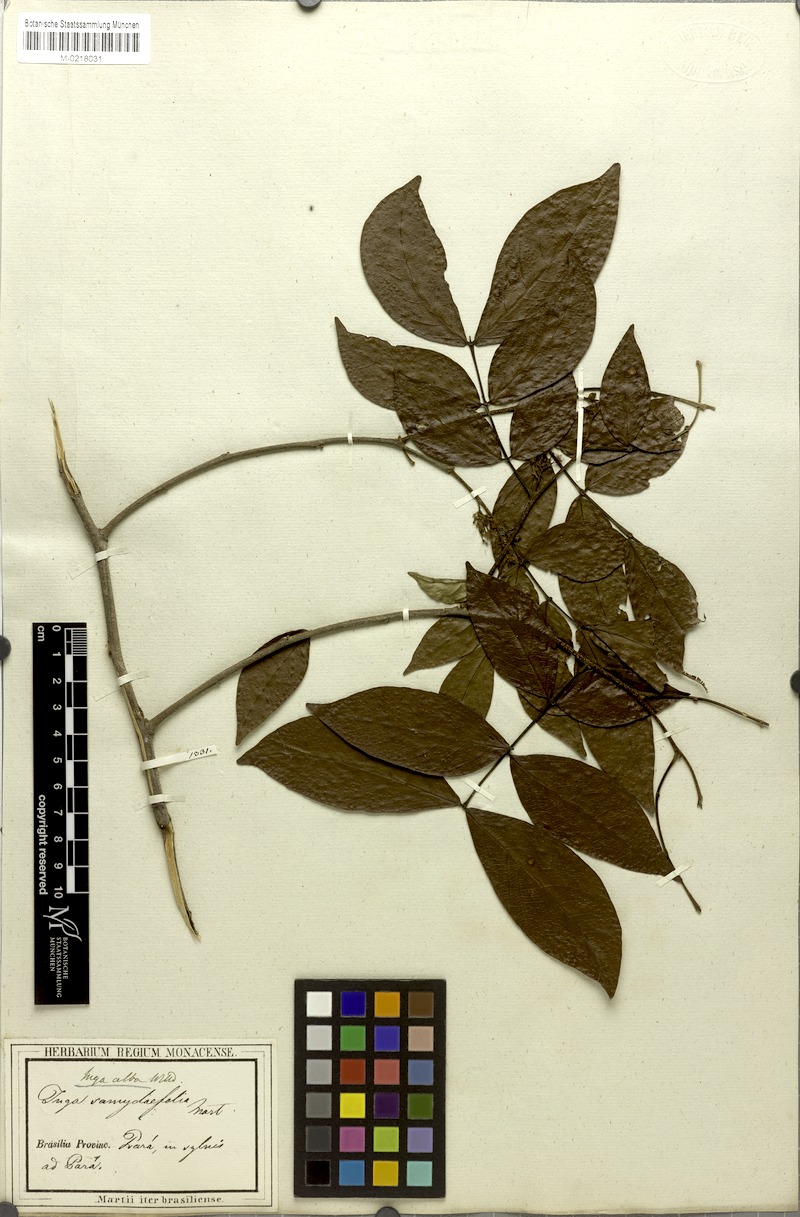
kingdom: Plantae
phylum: Tracheophyta
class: Magnoliopsida
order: Fabales
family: Fabaceae
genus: Inga
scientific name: Inga alba
